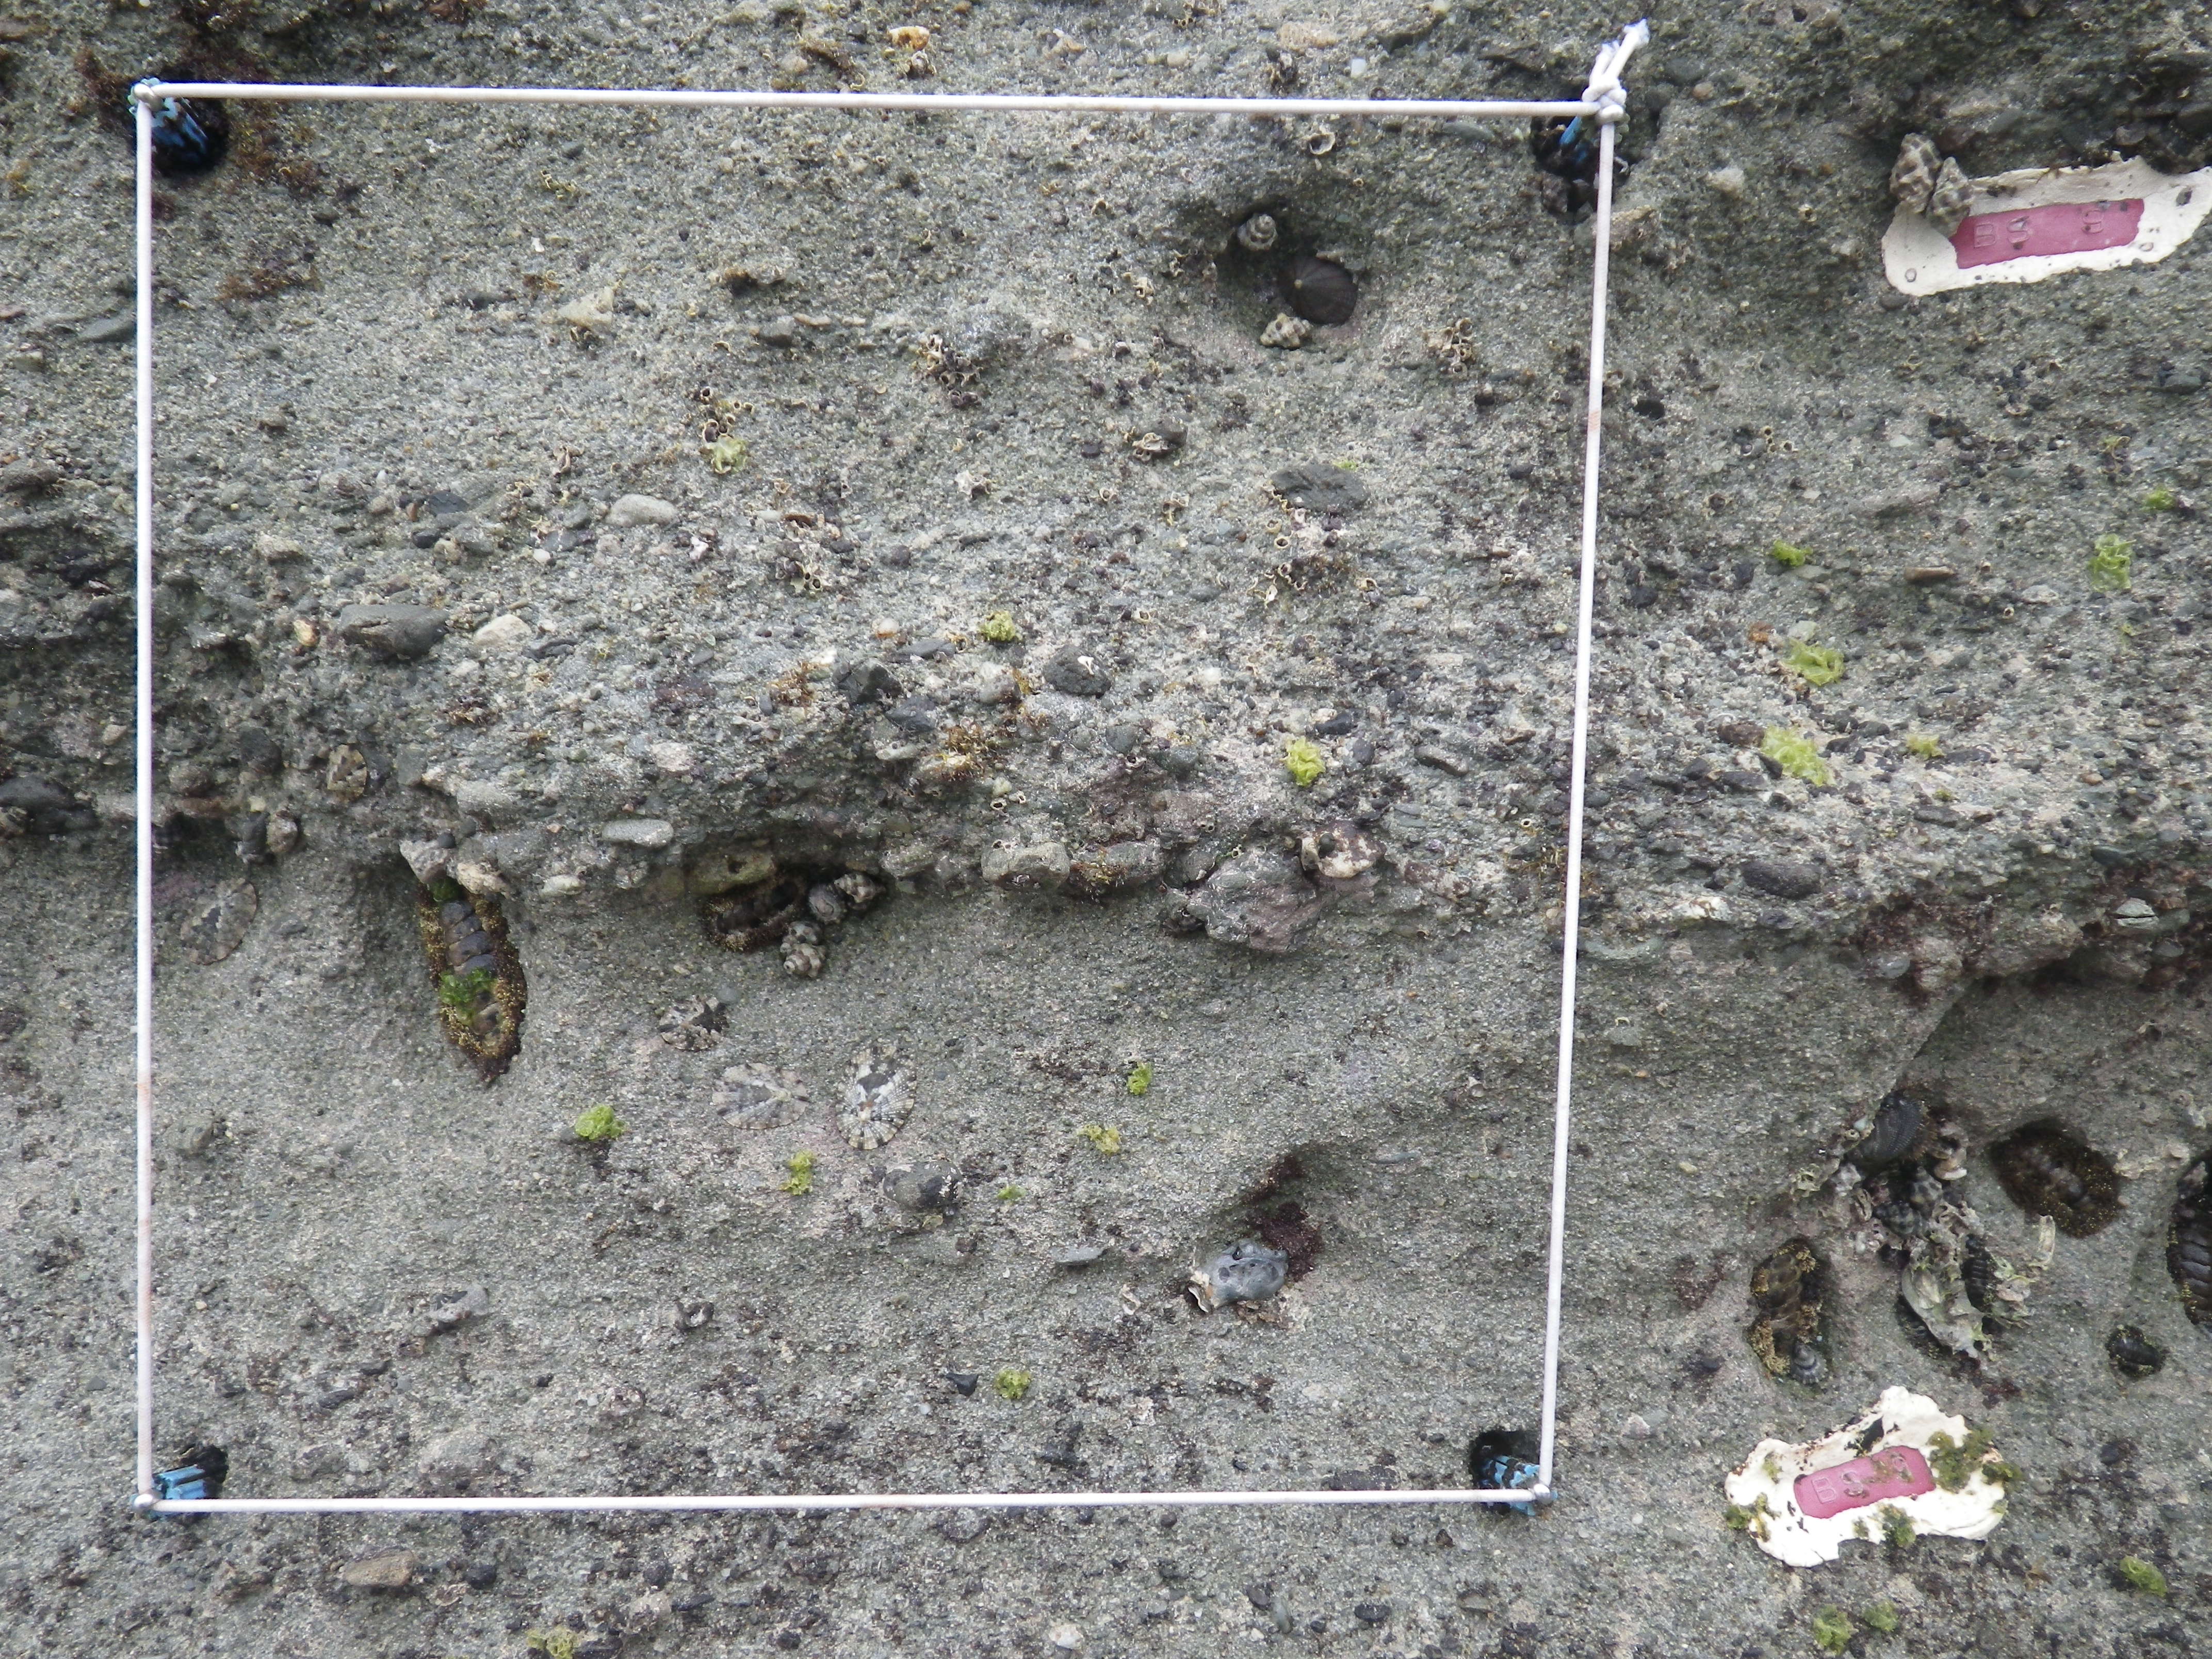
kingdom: Animalia
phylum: Arthropoda
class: Maxillopoda
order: Sessilia
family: Chthamalidae
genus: Chthamalus
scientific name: Chthamalus challengeri
